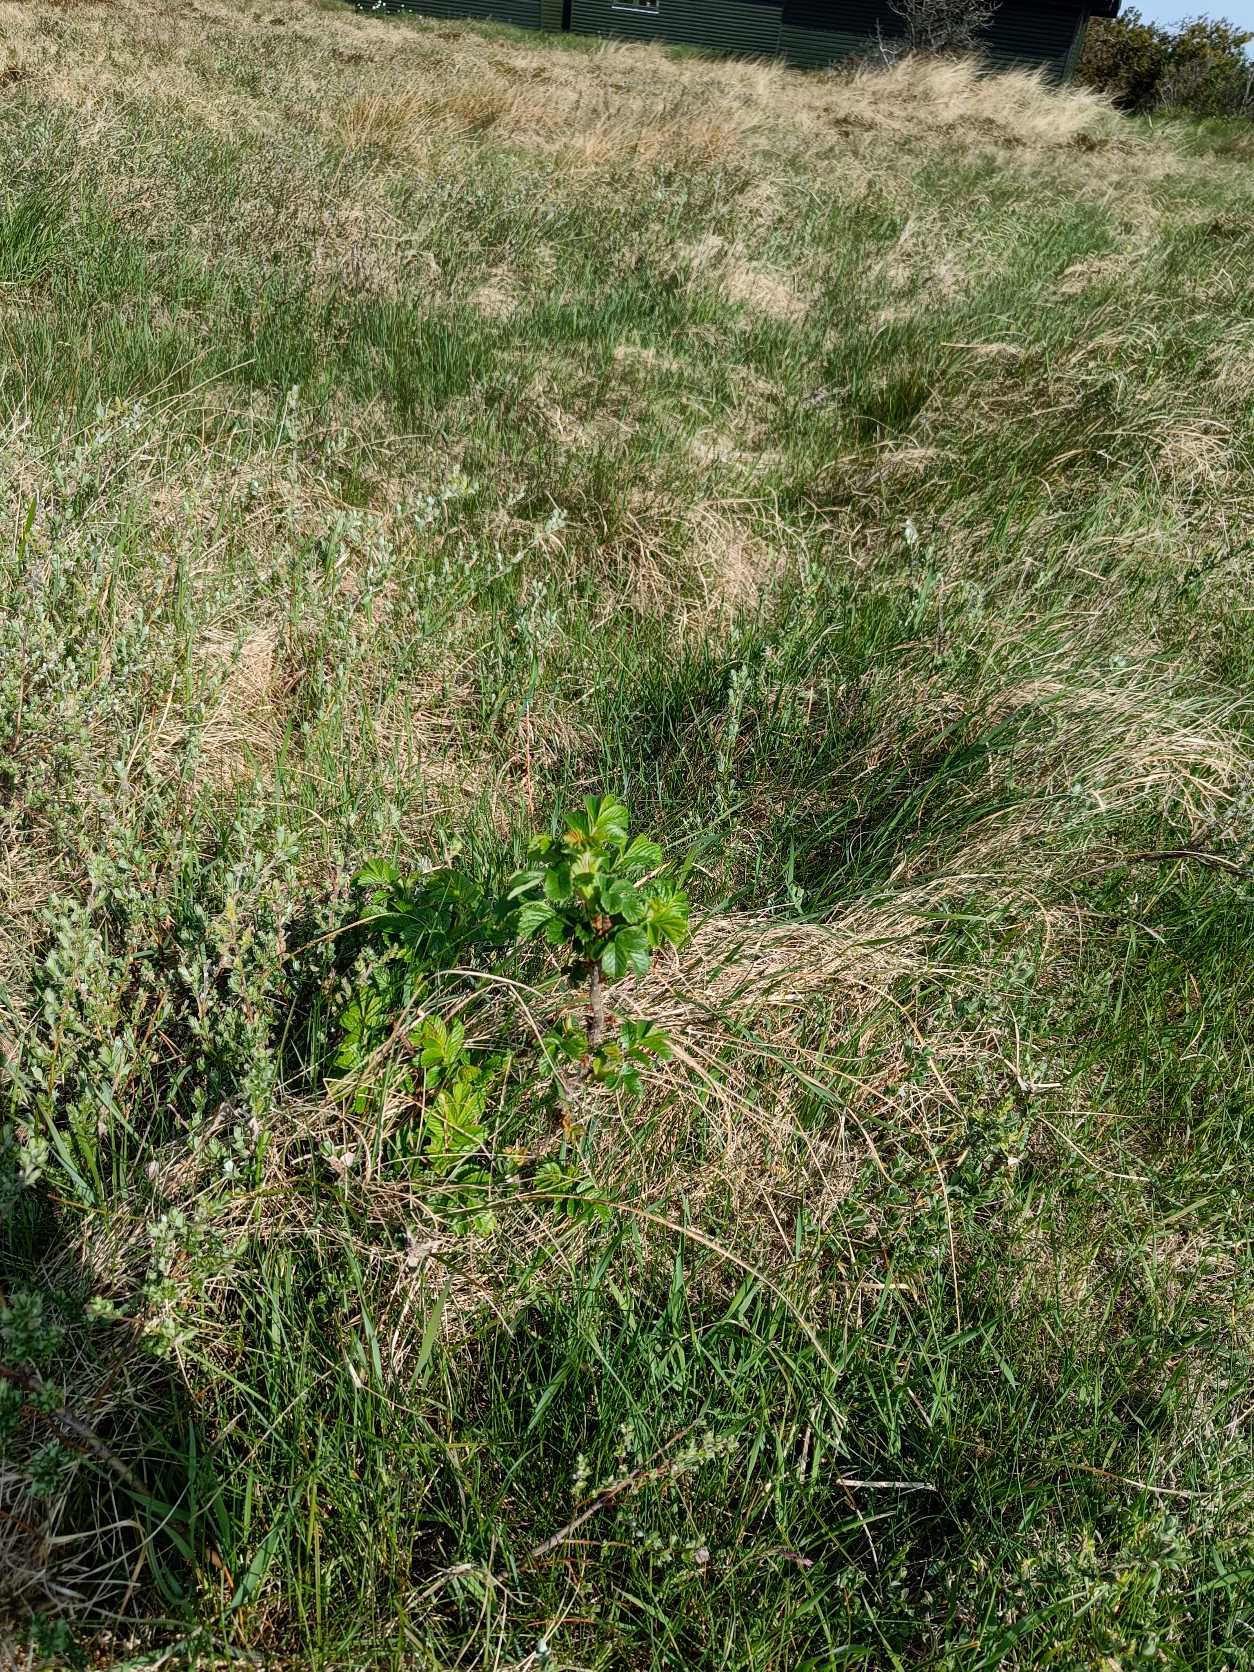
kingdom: Plantae
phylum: Tracheophyta
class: Magnoliopsida
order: Rosales
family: Rosaceae
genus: Rosa
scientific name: Rosa rugosa
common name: Rynket rose
